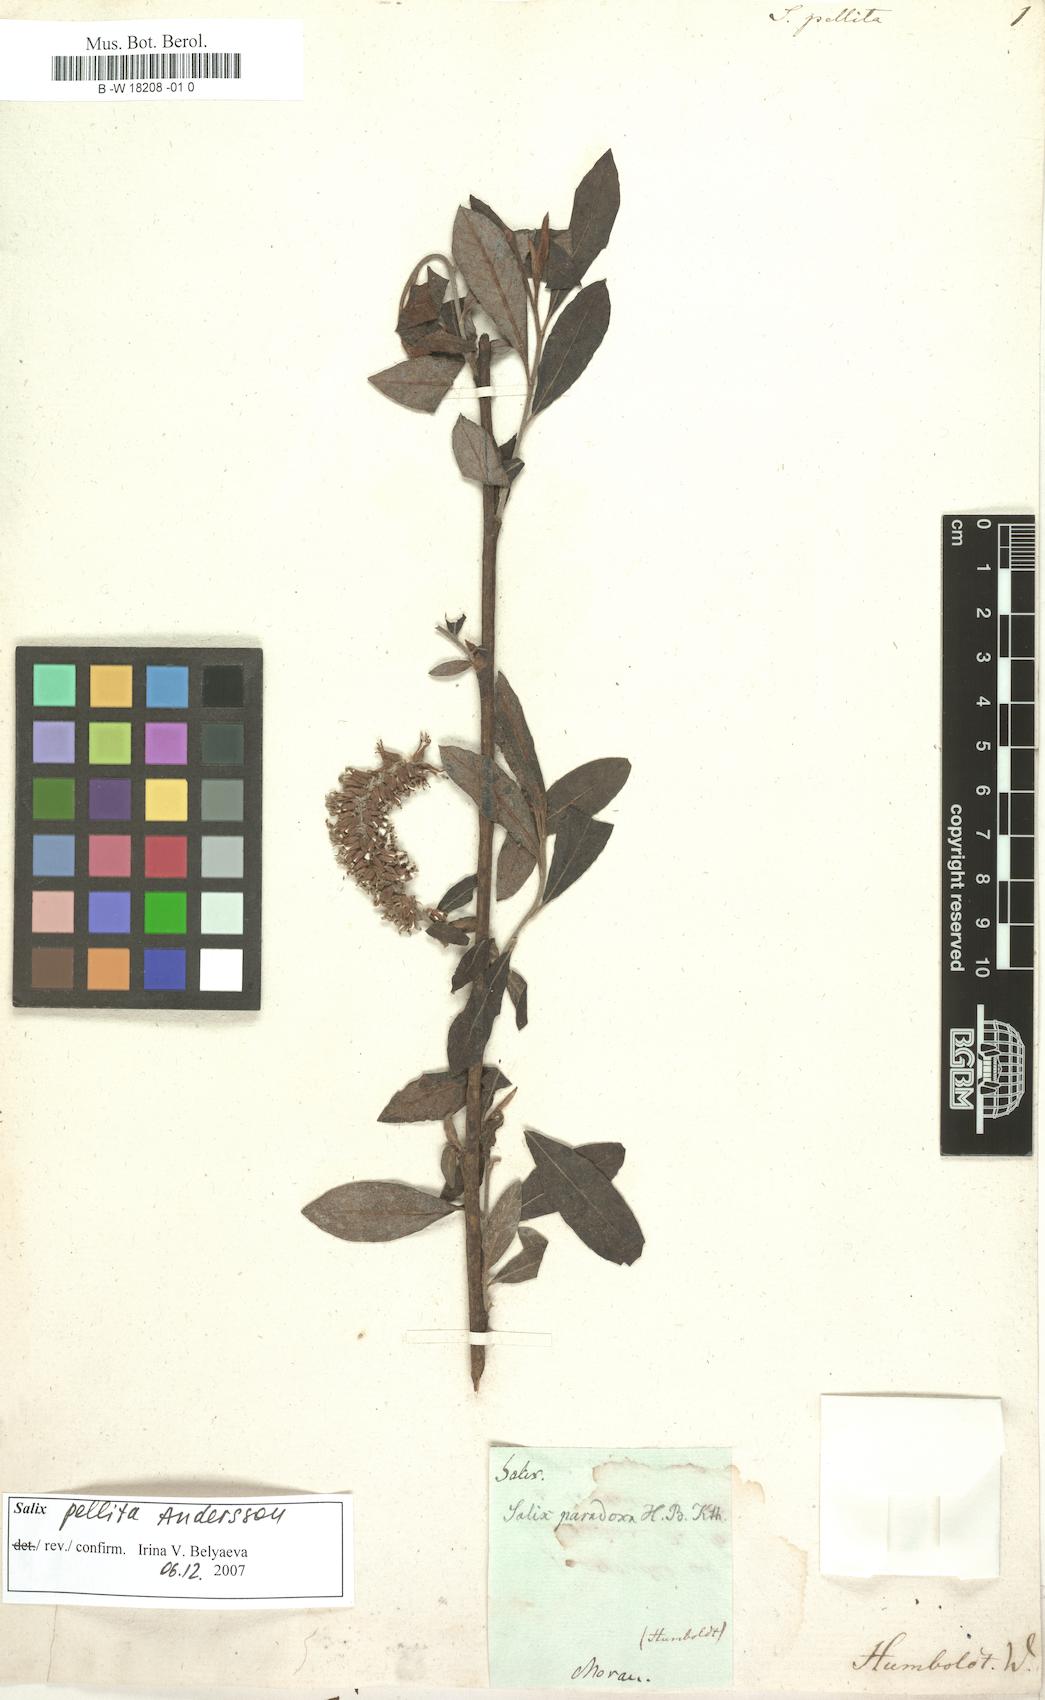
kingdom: Plantae
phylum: Tracheophyta
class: Magnoliopsida
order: Malpighiales
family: Salicaceae
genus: Salix
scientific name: Salix pellita
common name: Satiny willow
